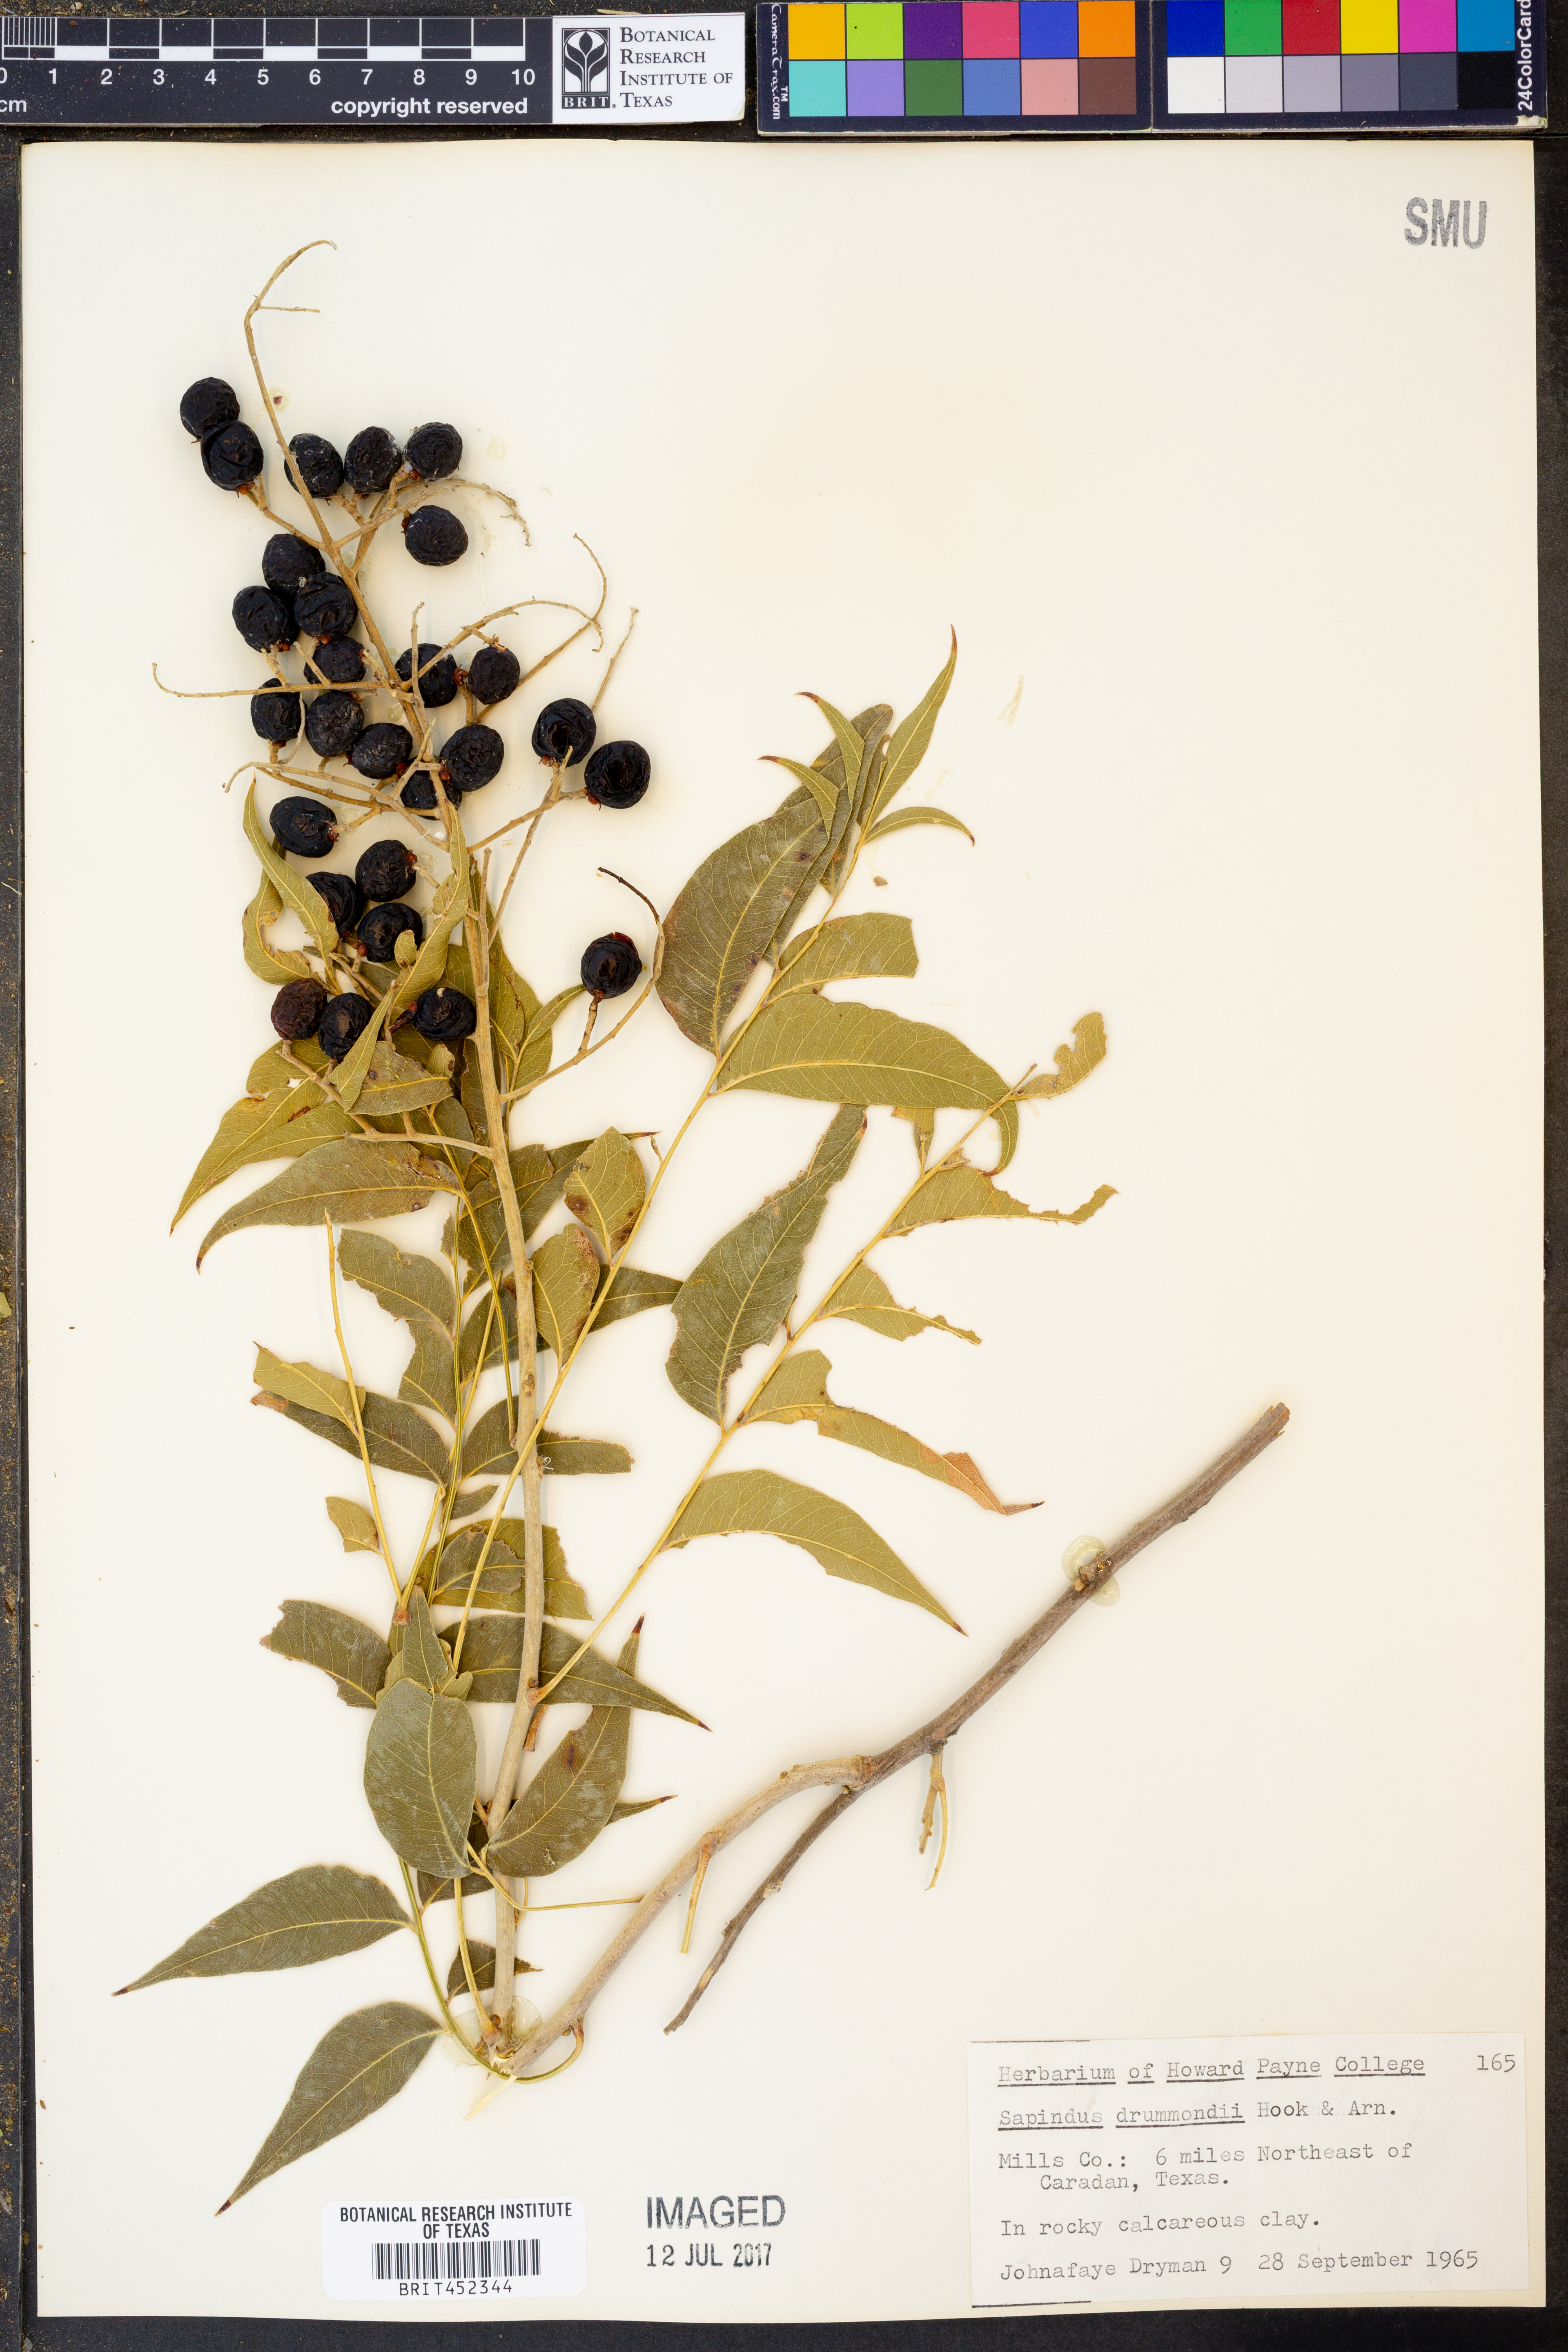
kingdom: Plantae
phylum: Tracheophyta
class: Magnoliopsida
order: Sapindales
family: Sapindaceae
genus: Sapindus
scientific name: Sapindus drummondii
